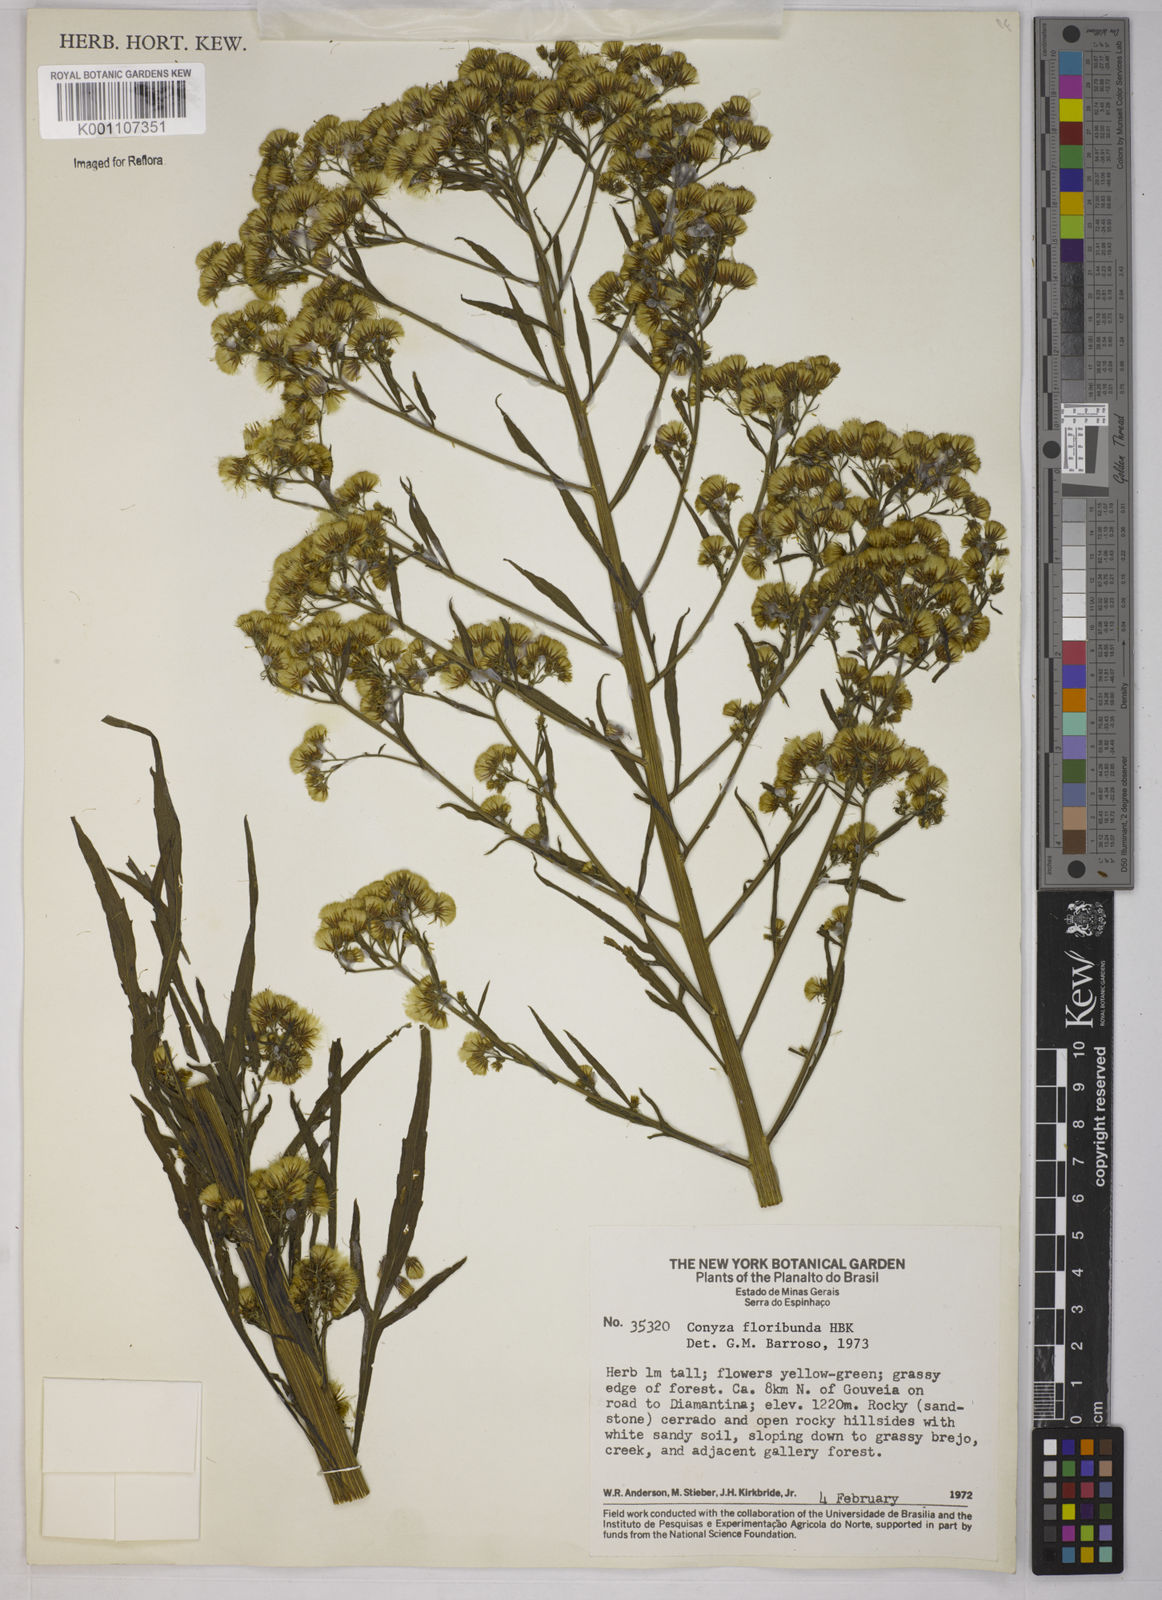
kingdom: Plantae
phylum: Tracheophyta
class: Magnoliopsida
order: Asterales
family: Asteraceae
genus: Erigeron
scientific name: Erigeron floribundus
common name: Bilbao fleabane
